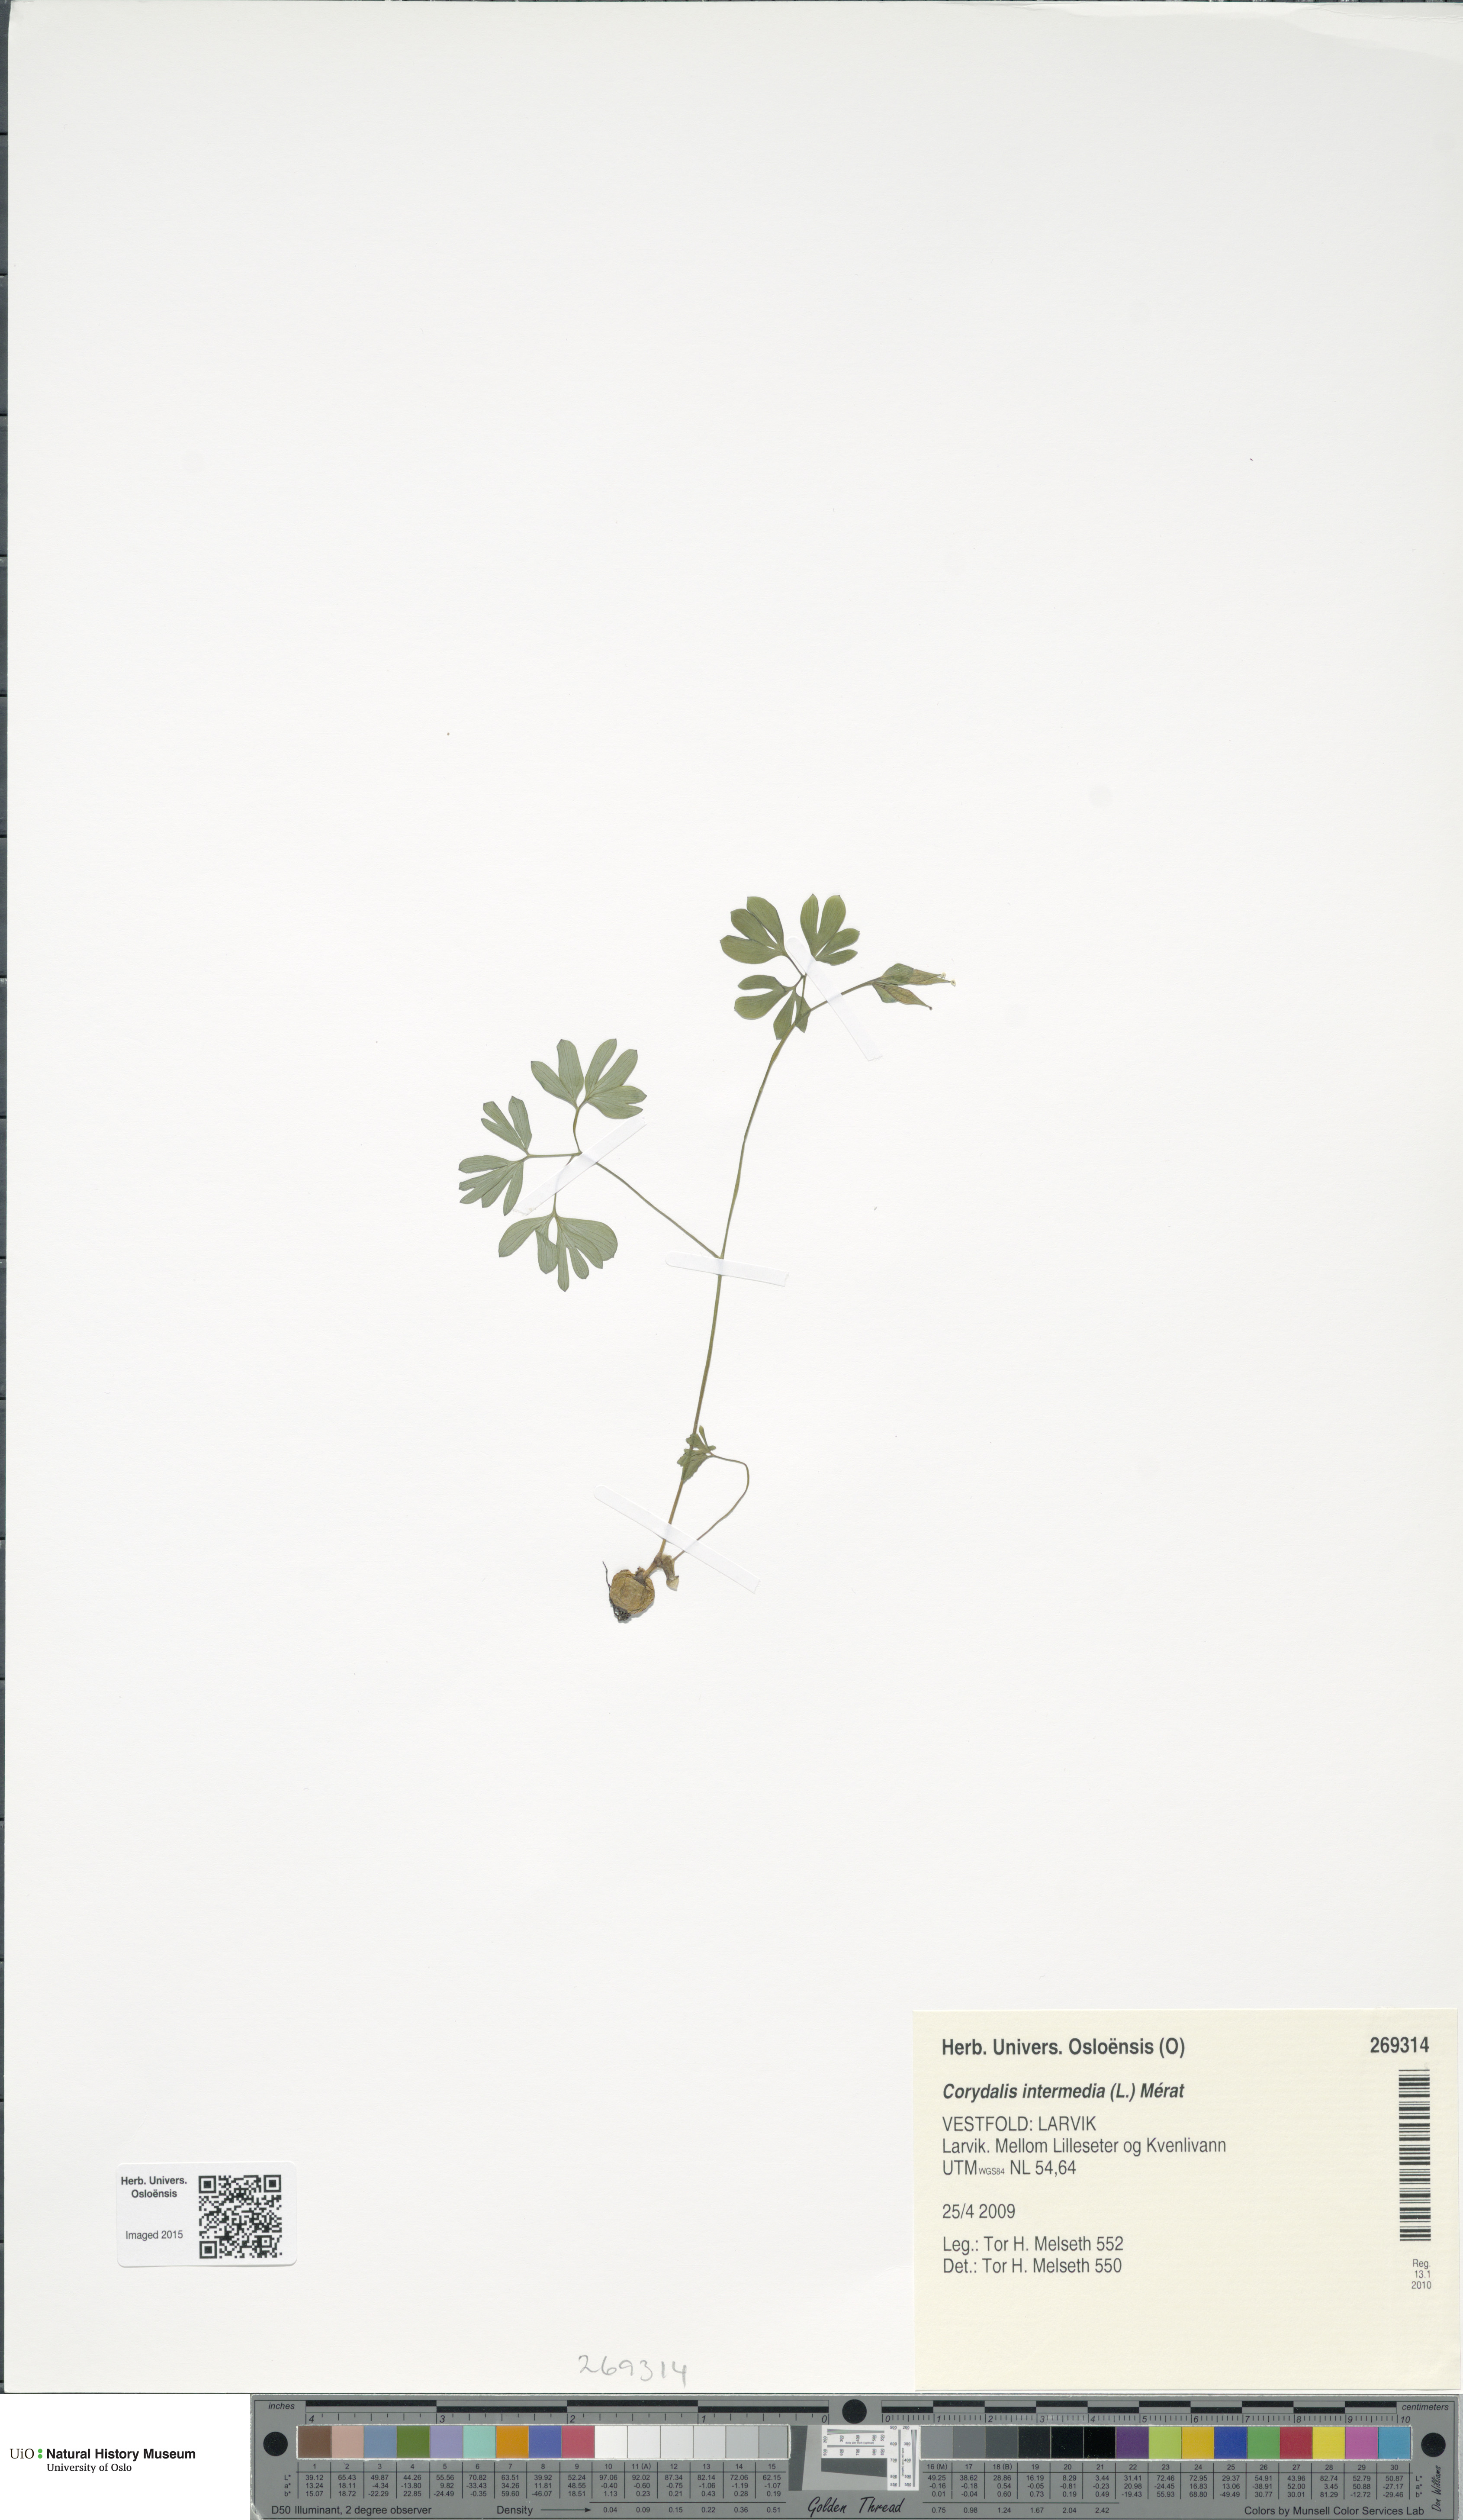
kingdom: Plantae
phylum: Tracheophyta
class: Magnoliopsida
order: Ranunculales
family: Papaveraceae
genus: Corydalis
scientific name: Corydalis intermedia
